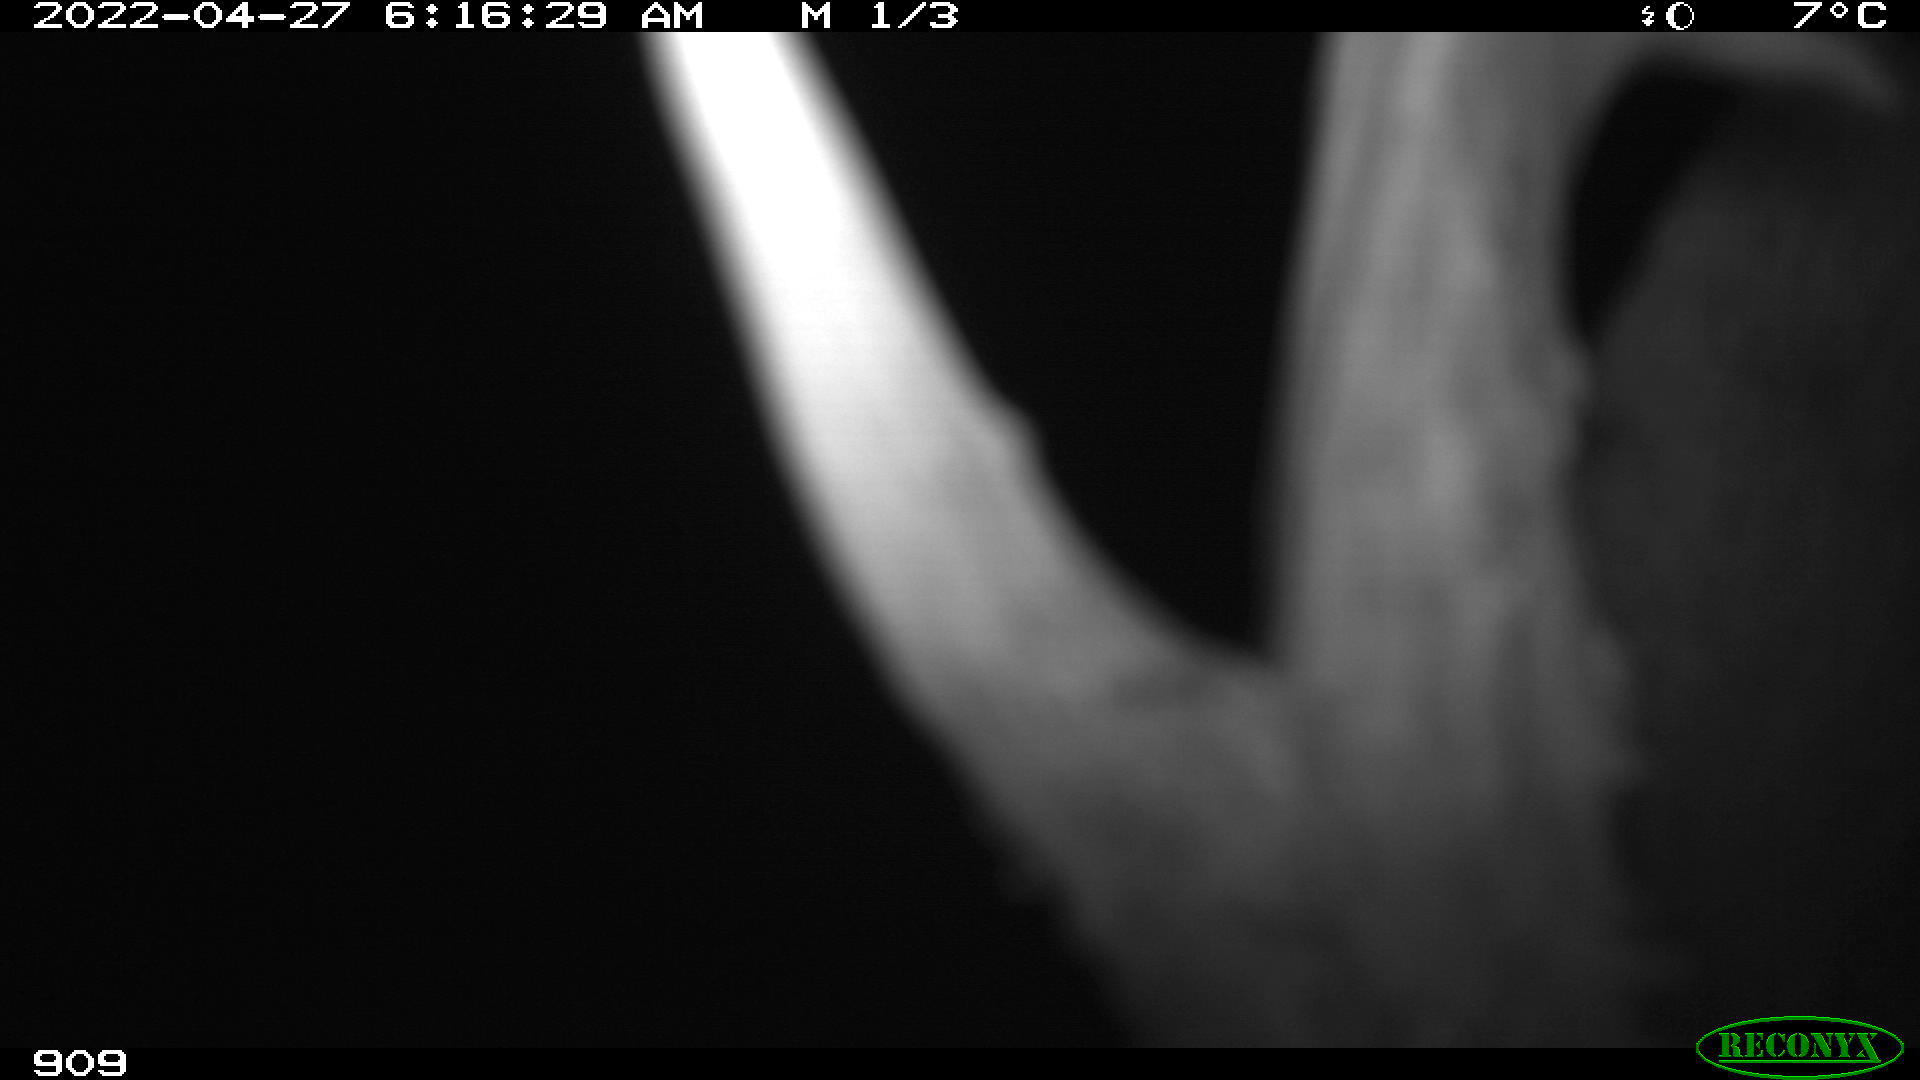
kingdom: Animalia
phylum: Chordata
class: Mammalia
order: Artiodactyla
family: Cervidae
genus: Capreolus
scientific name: Capreolus capreolus
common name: Western roe deer
